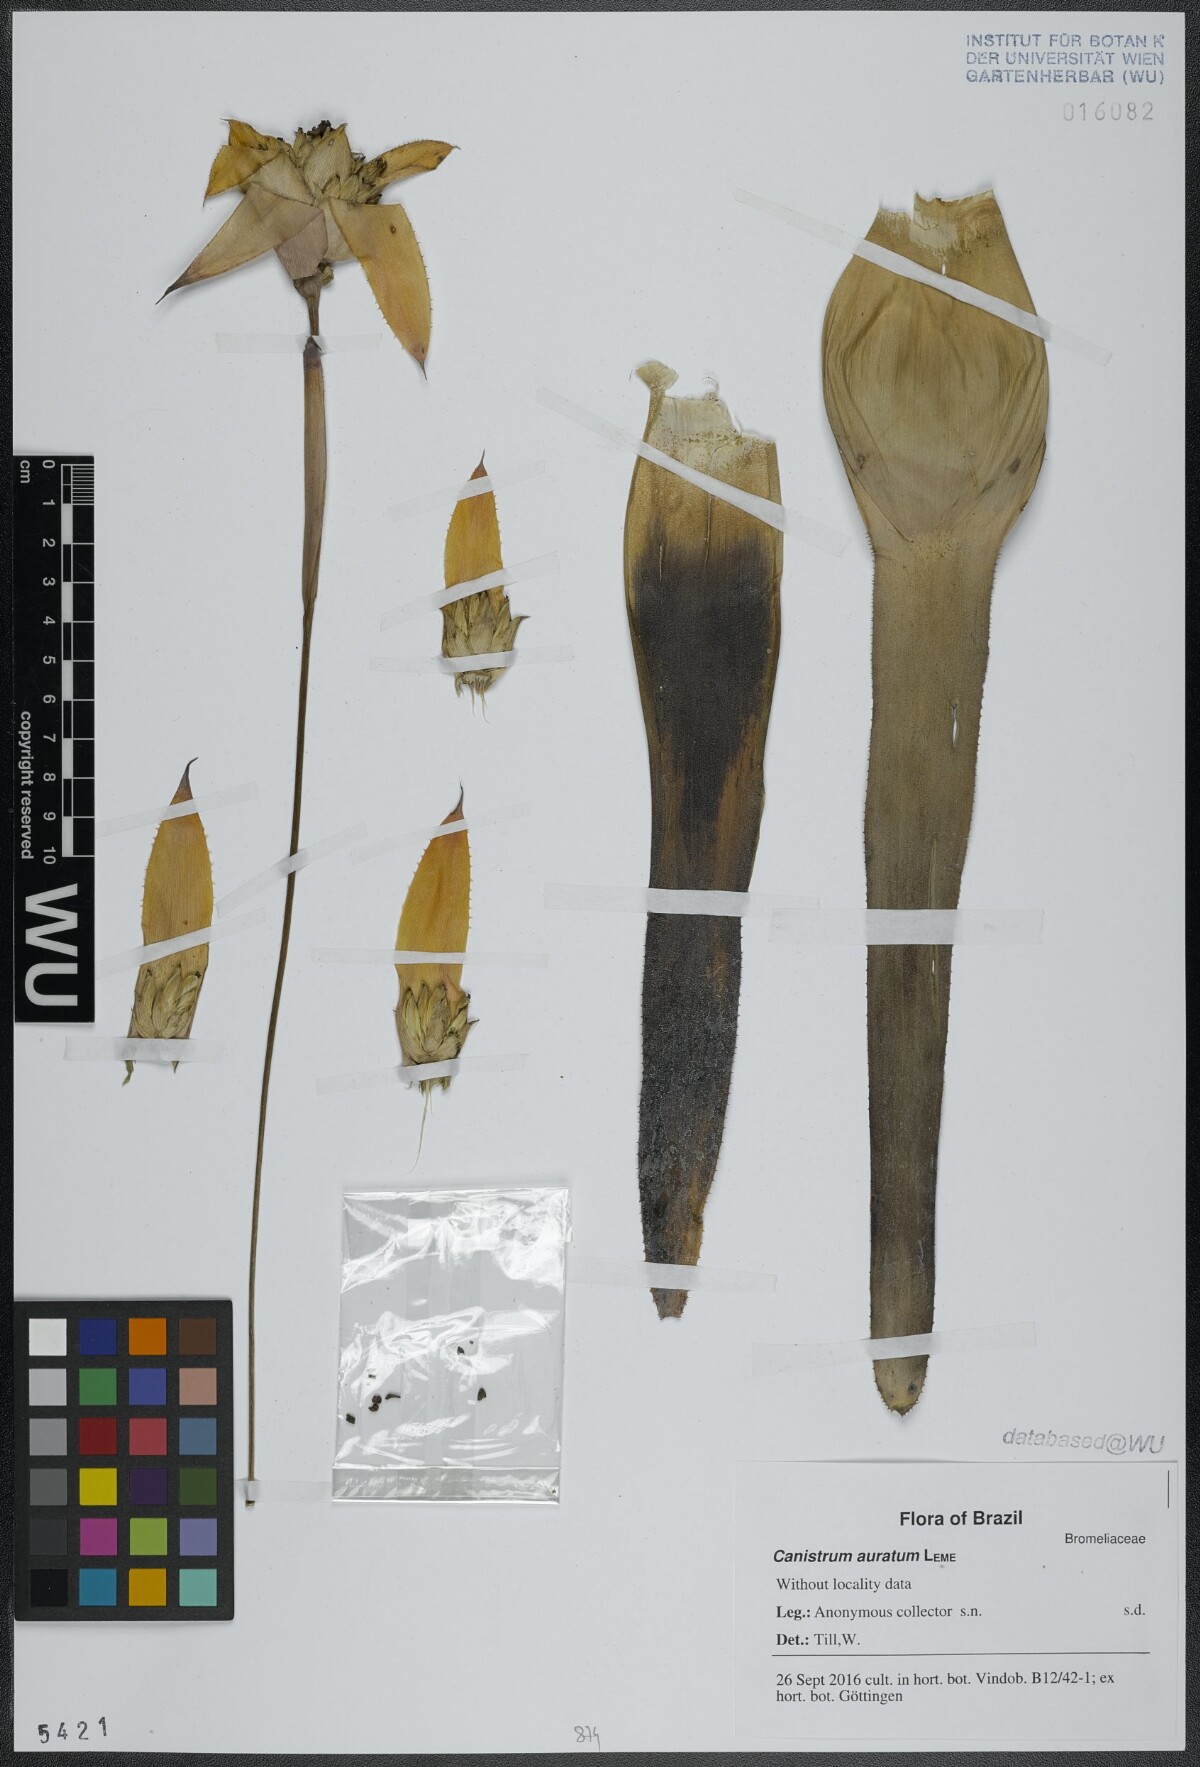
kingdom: Plantae
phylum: Tracheophyta
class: Liliopsida
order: Poales
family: Bromeliaceae
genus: Canistrum
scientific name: Canistrum auratum
